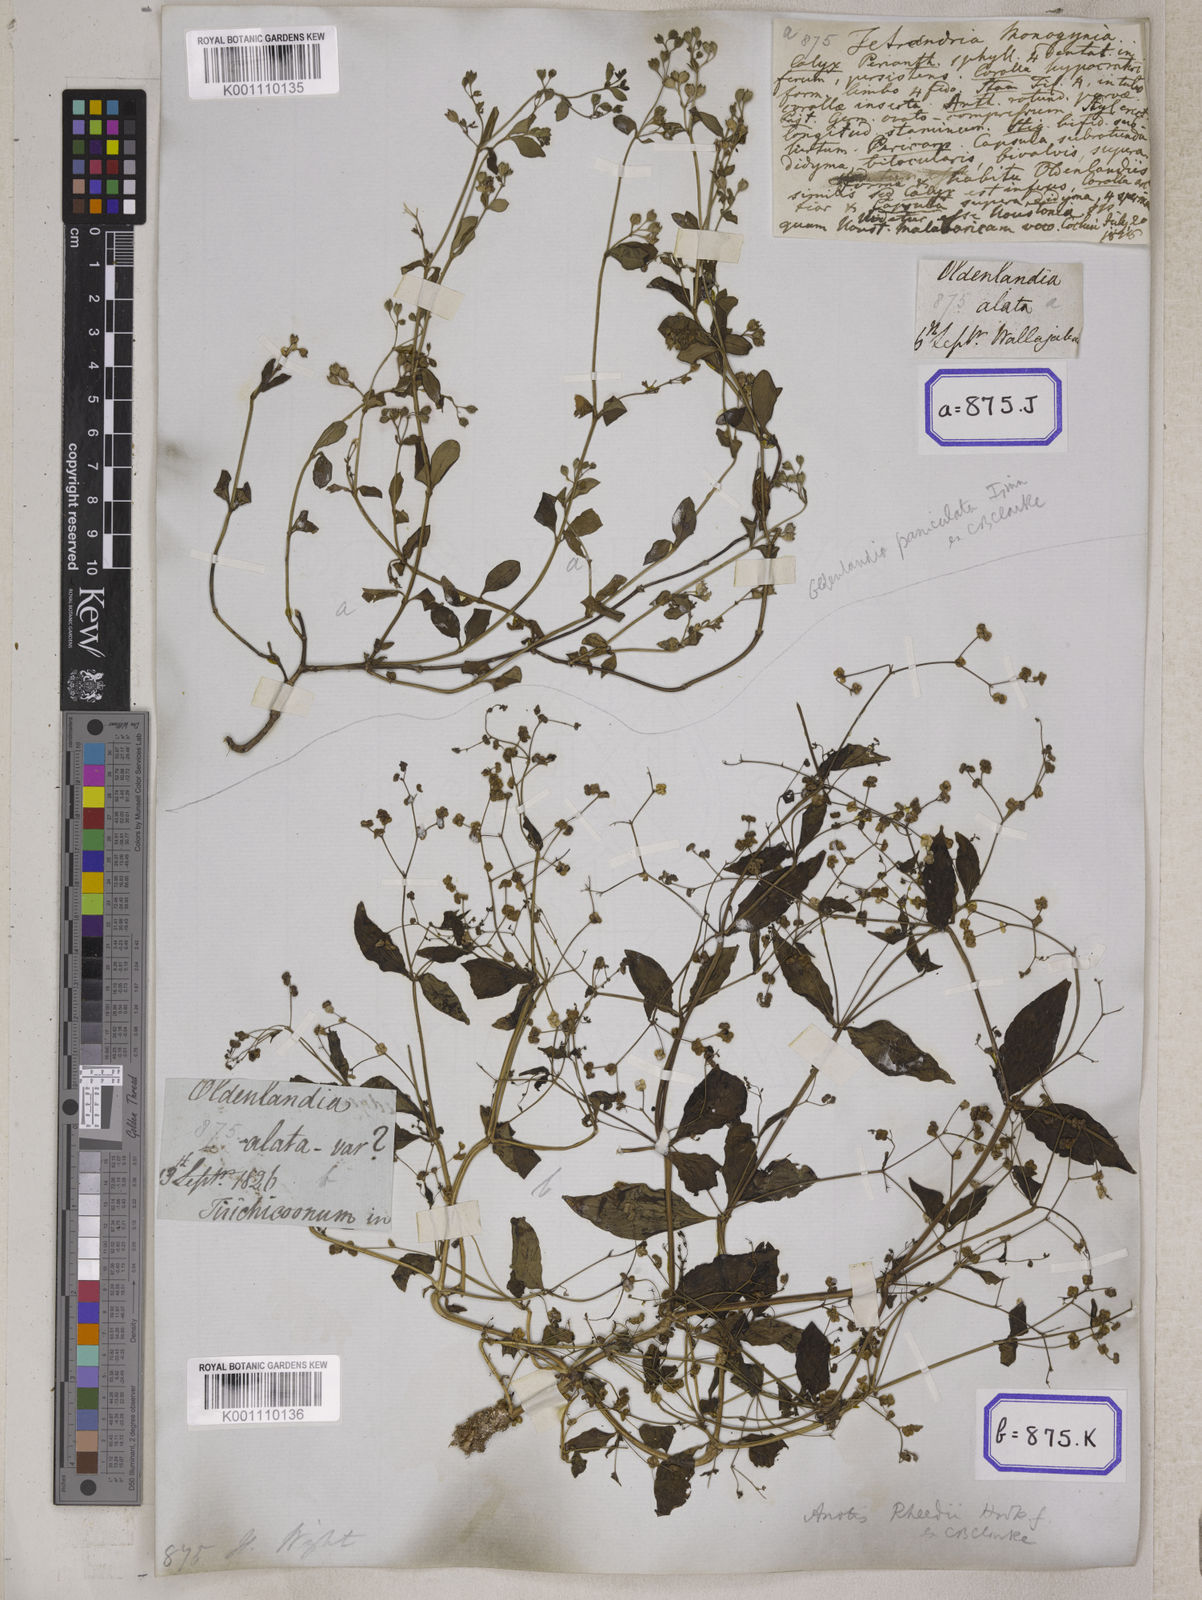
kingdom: Plantae
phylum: Tracheophyta
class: Magnoliopsida
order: Gentianales
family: Rubiaceae
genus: Leptopetalum
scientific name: Leptopetalum racemosum
